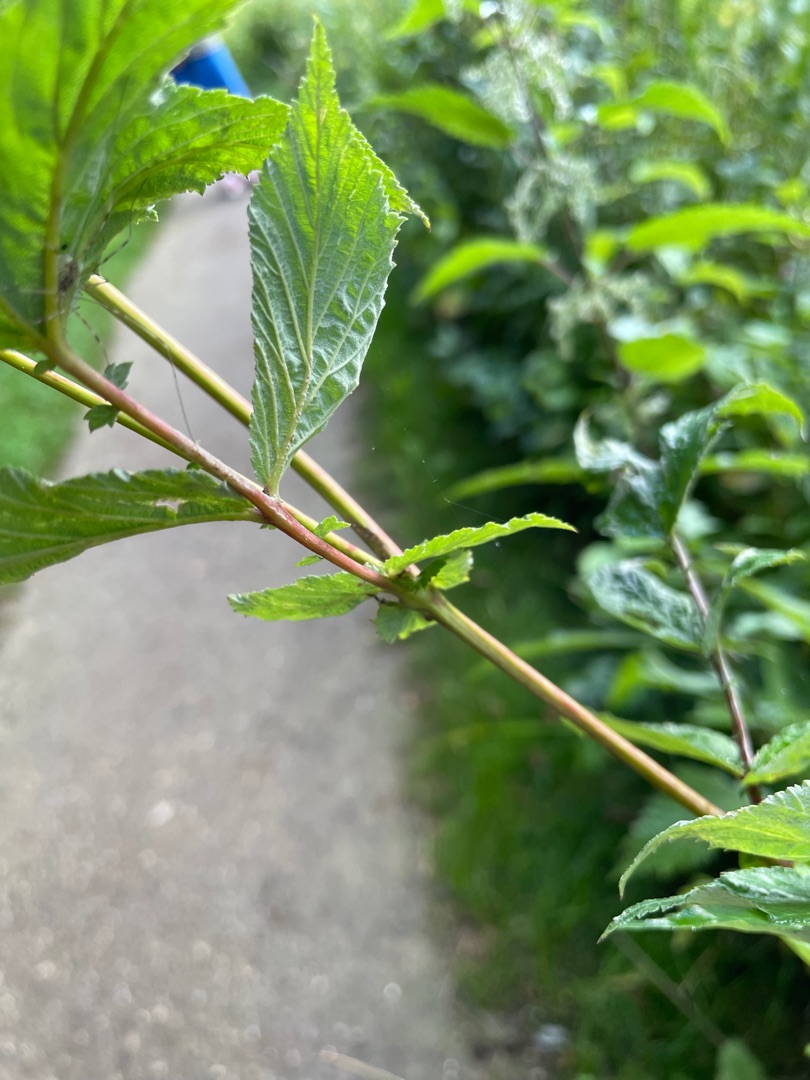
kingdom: Plantae
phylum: Tracheophyta
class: Magnoliopsida
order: Rosales
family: Rosaceae
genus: Filipendula
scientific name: Filipendula ulmaria
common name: Almindelig mjødurt
